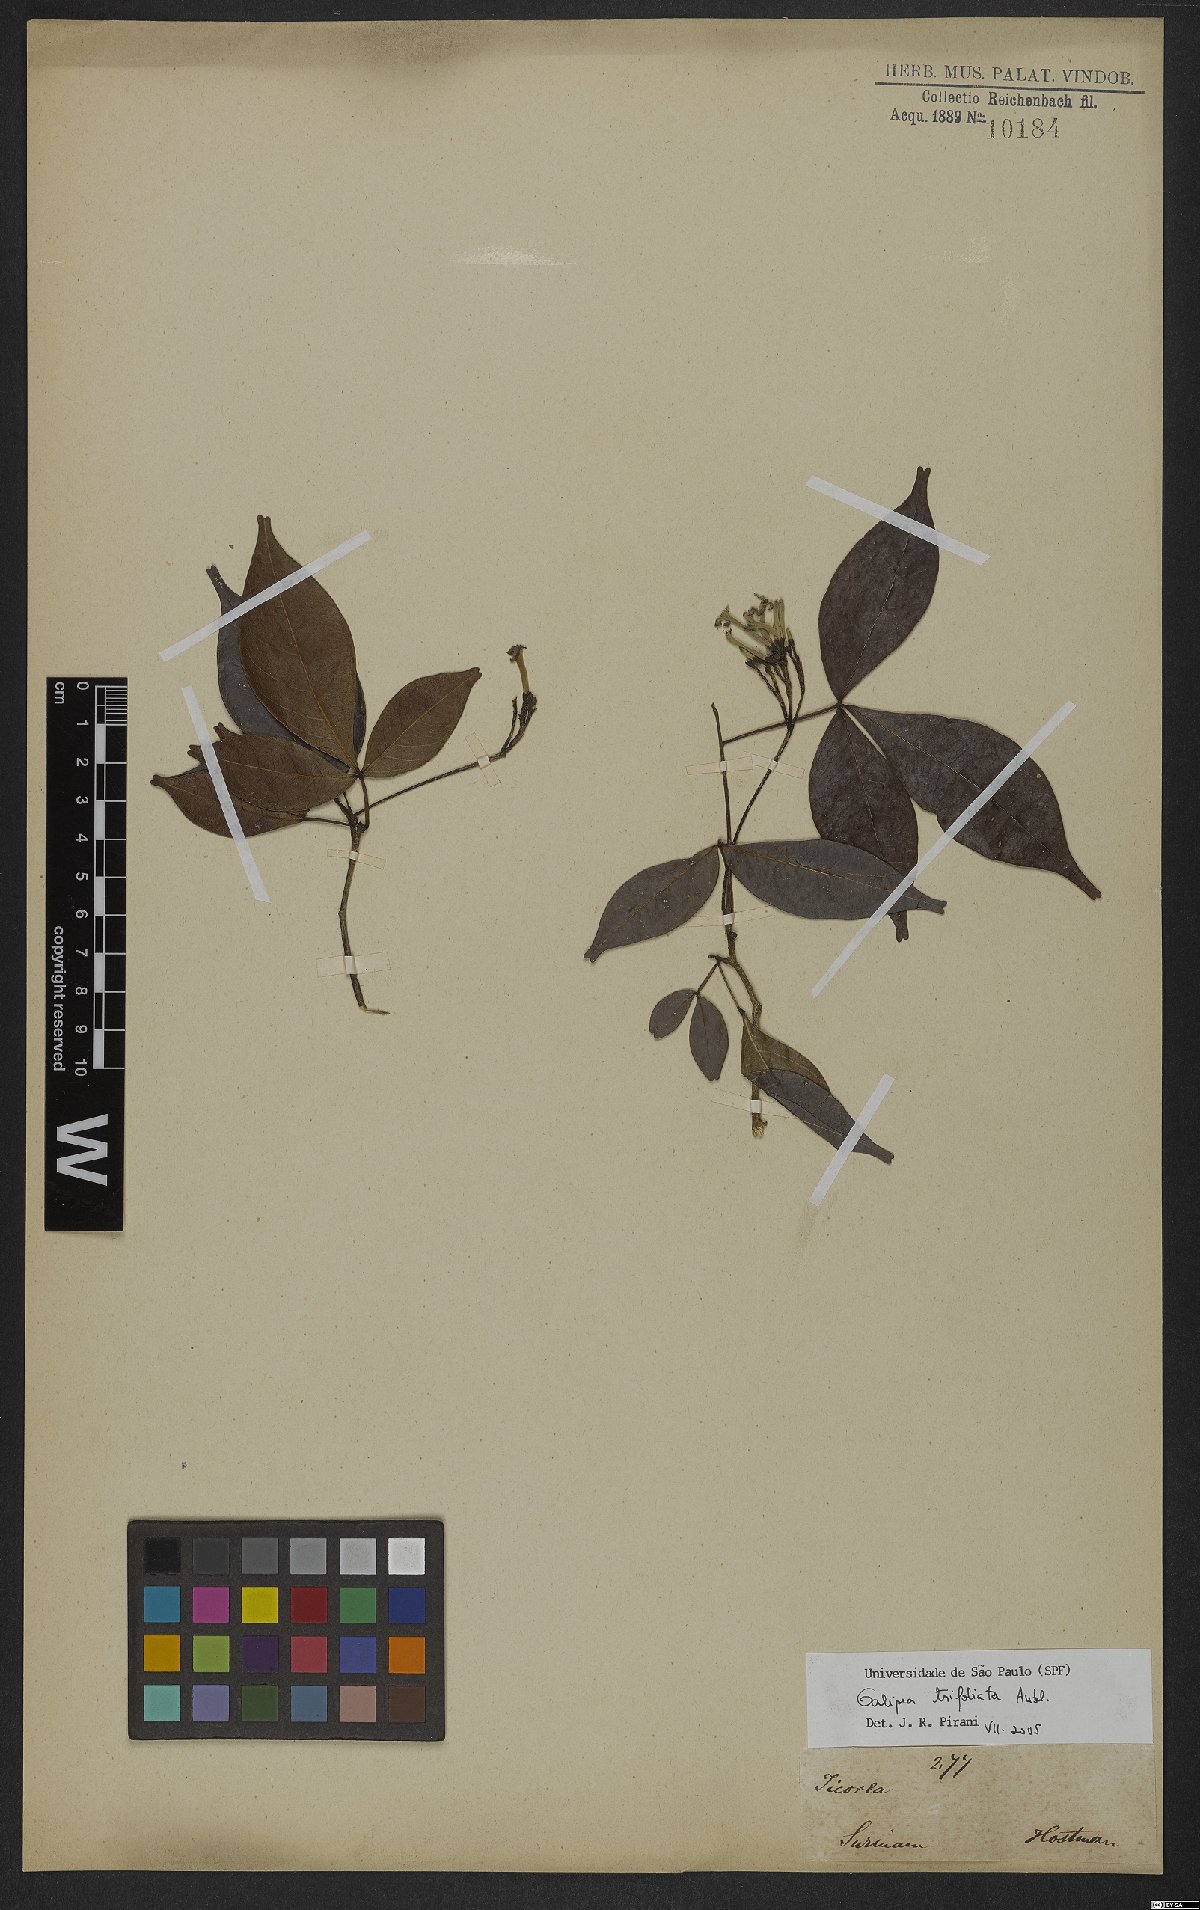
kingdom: Plantae
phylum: Tracheophyta
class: Magnoliopsida
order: Sapindales
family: Rutaceae
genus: Galipea
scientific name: Galipea trifoliata
